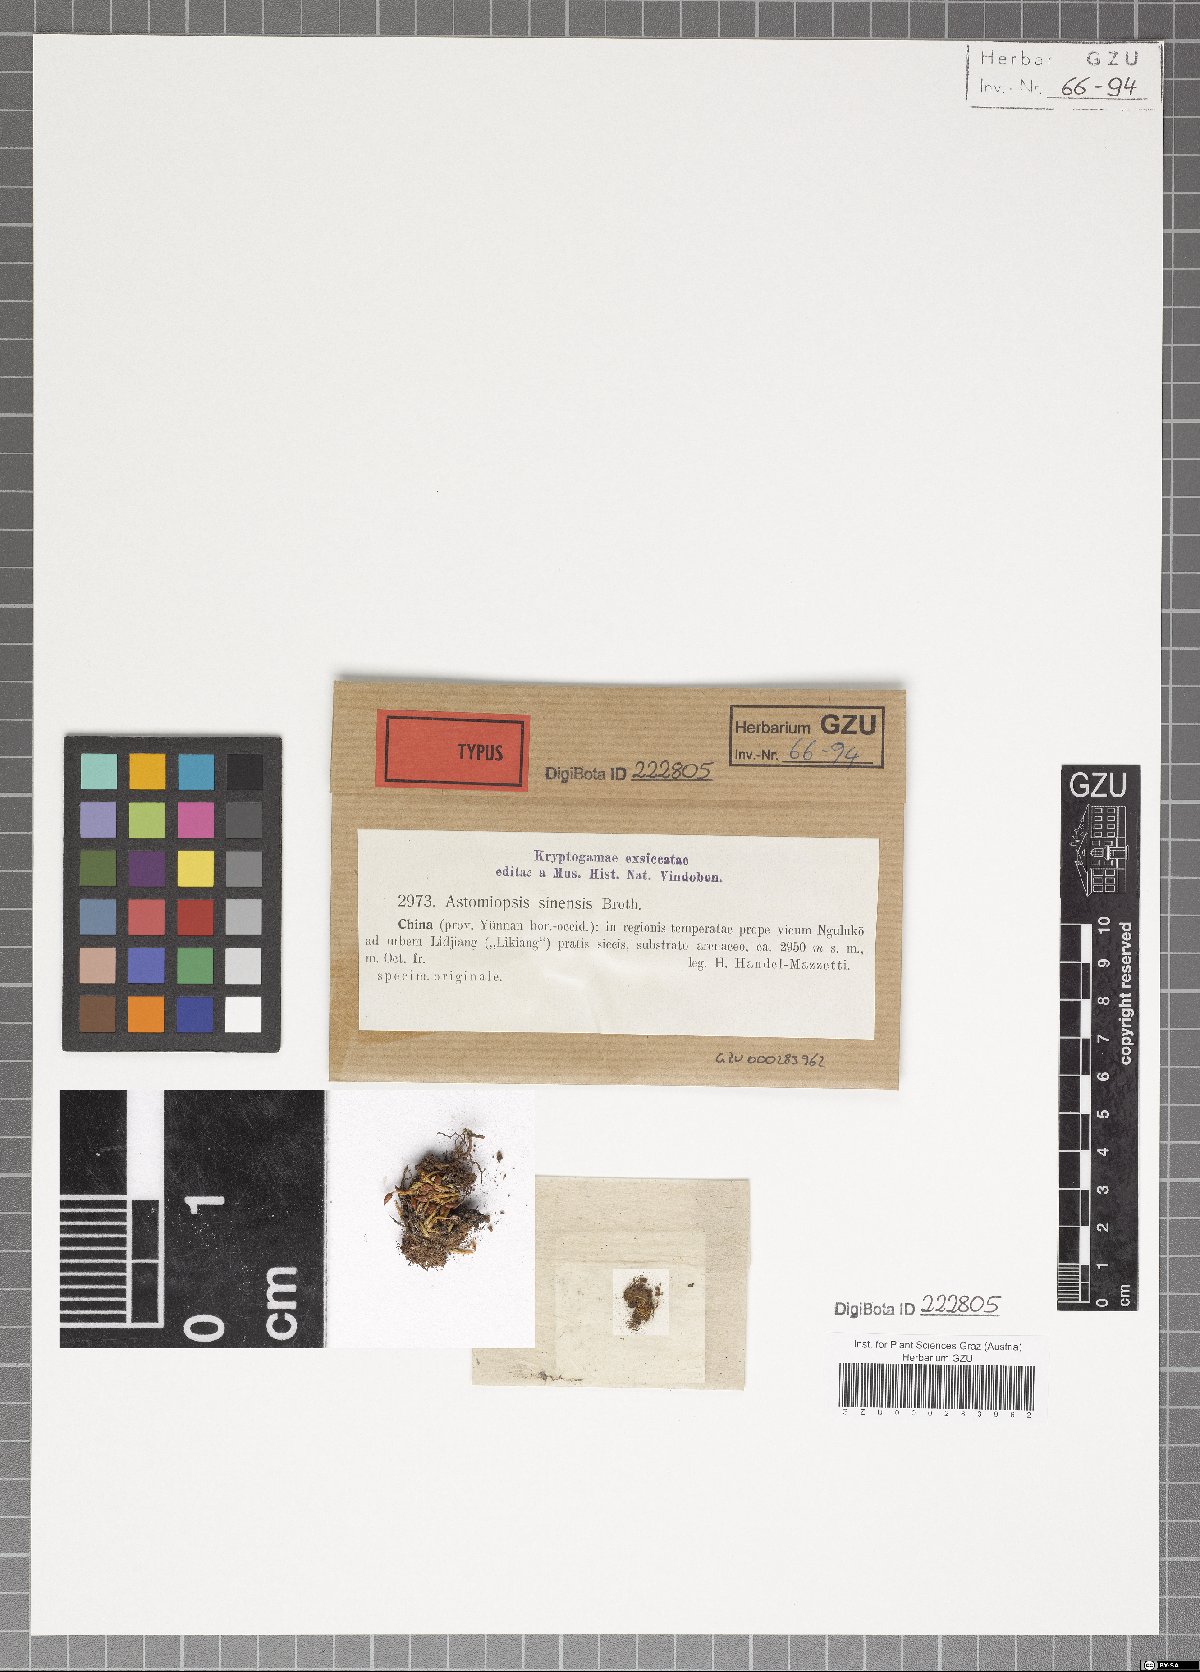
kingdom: Plantae
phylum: Bryophyta
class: Bryopsida
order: Dicranales
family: Ditrichaceae
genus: Astomiopsis
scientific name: Astomiopsis julacea
